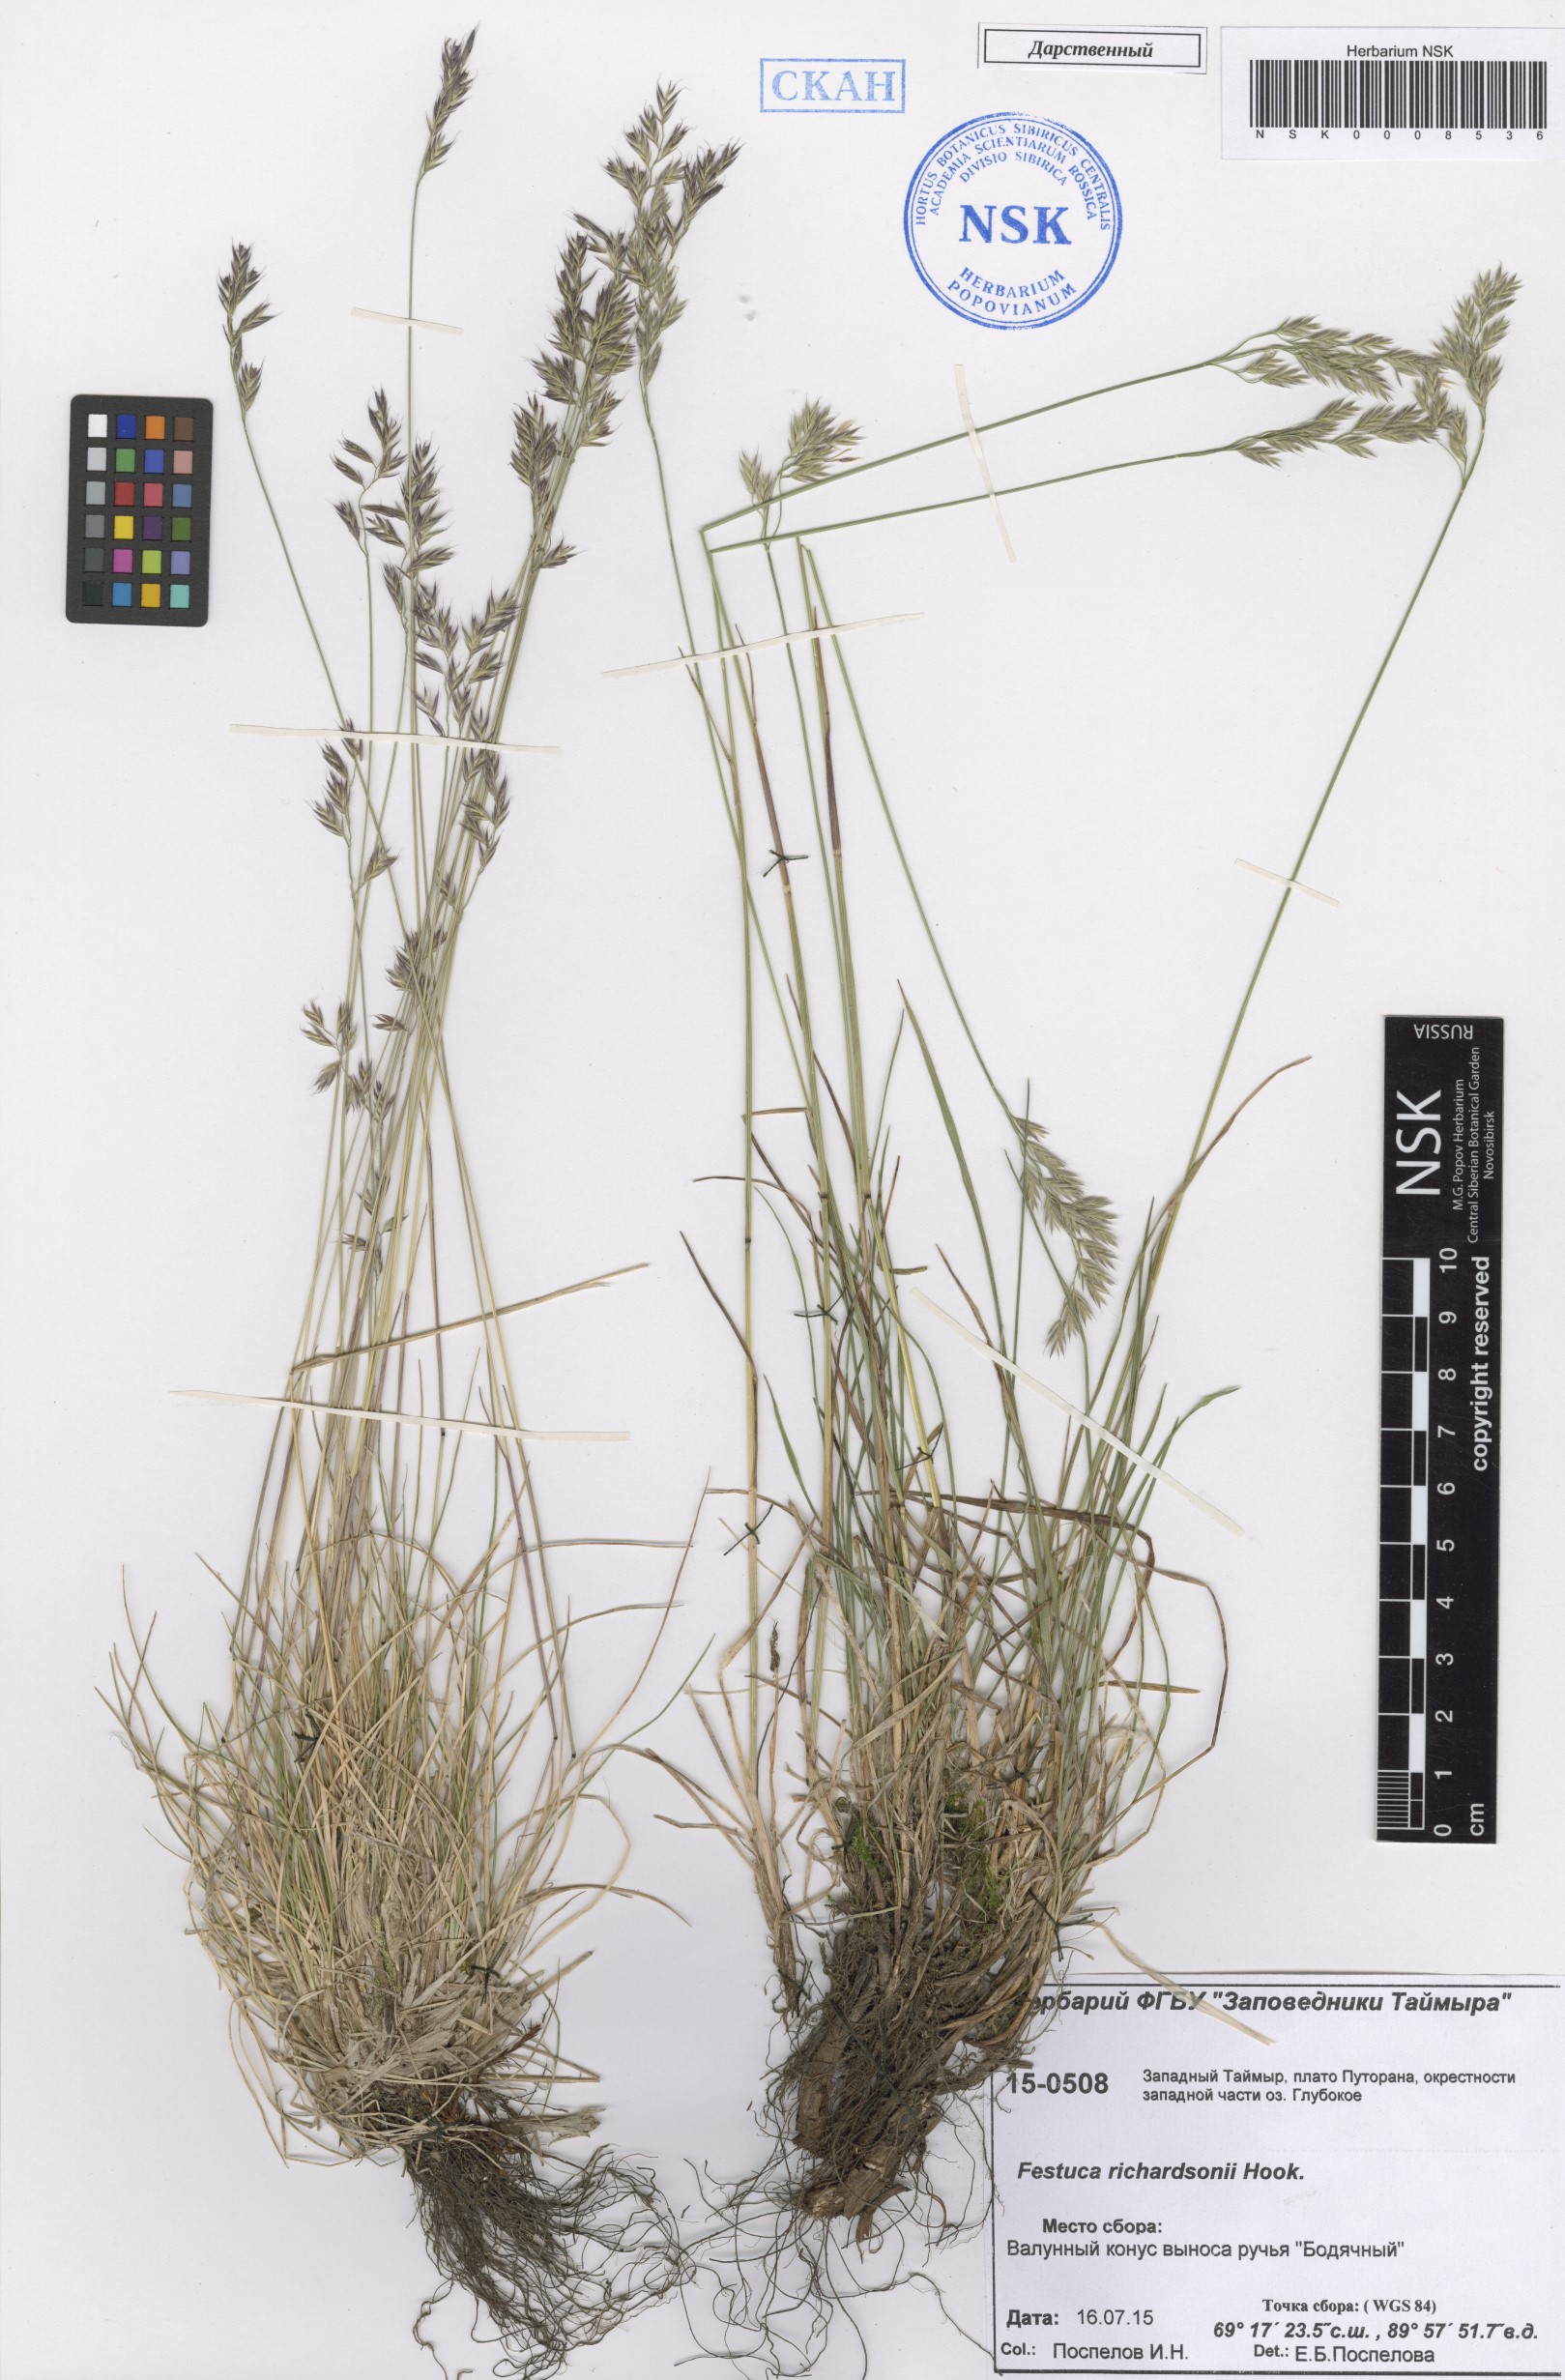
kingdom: Plantae
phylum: Tracheophyta
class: Liliopsida
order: Poales
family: Poaceae
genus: Festuca
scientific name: Festuca richardsonii
